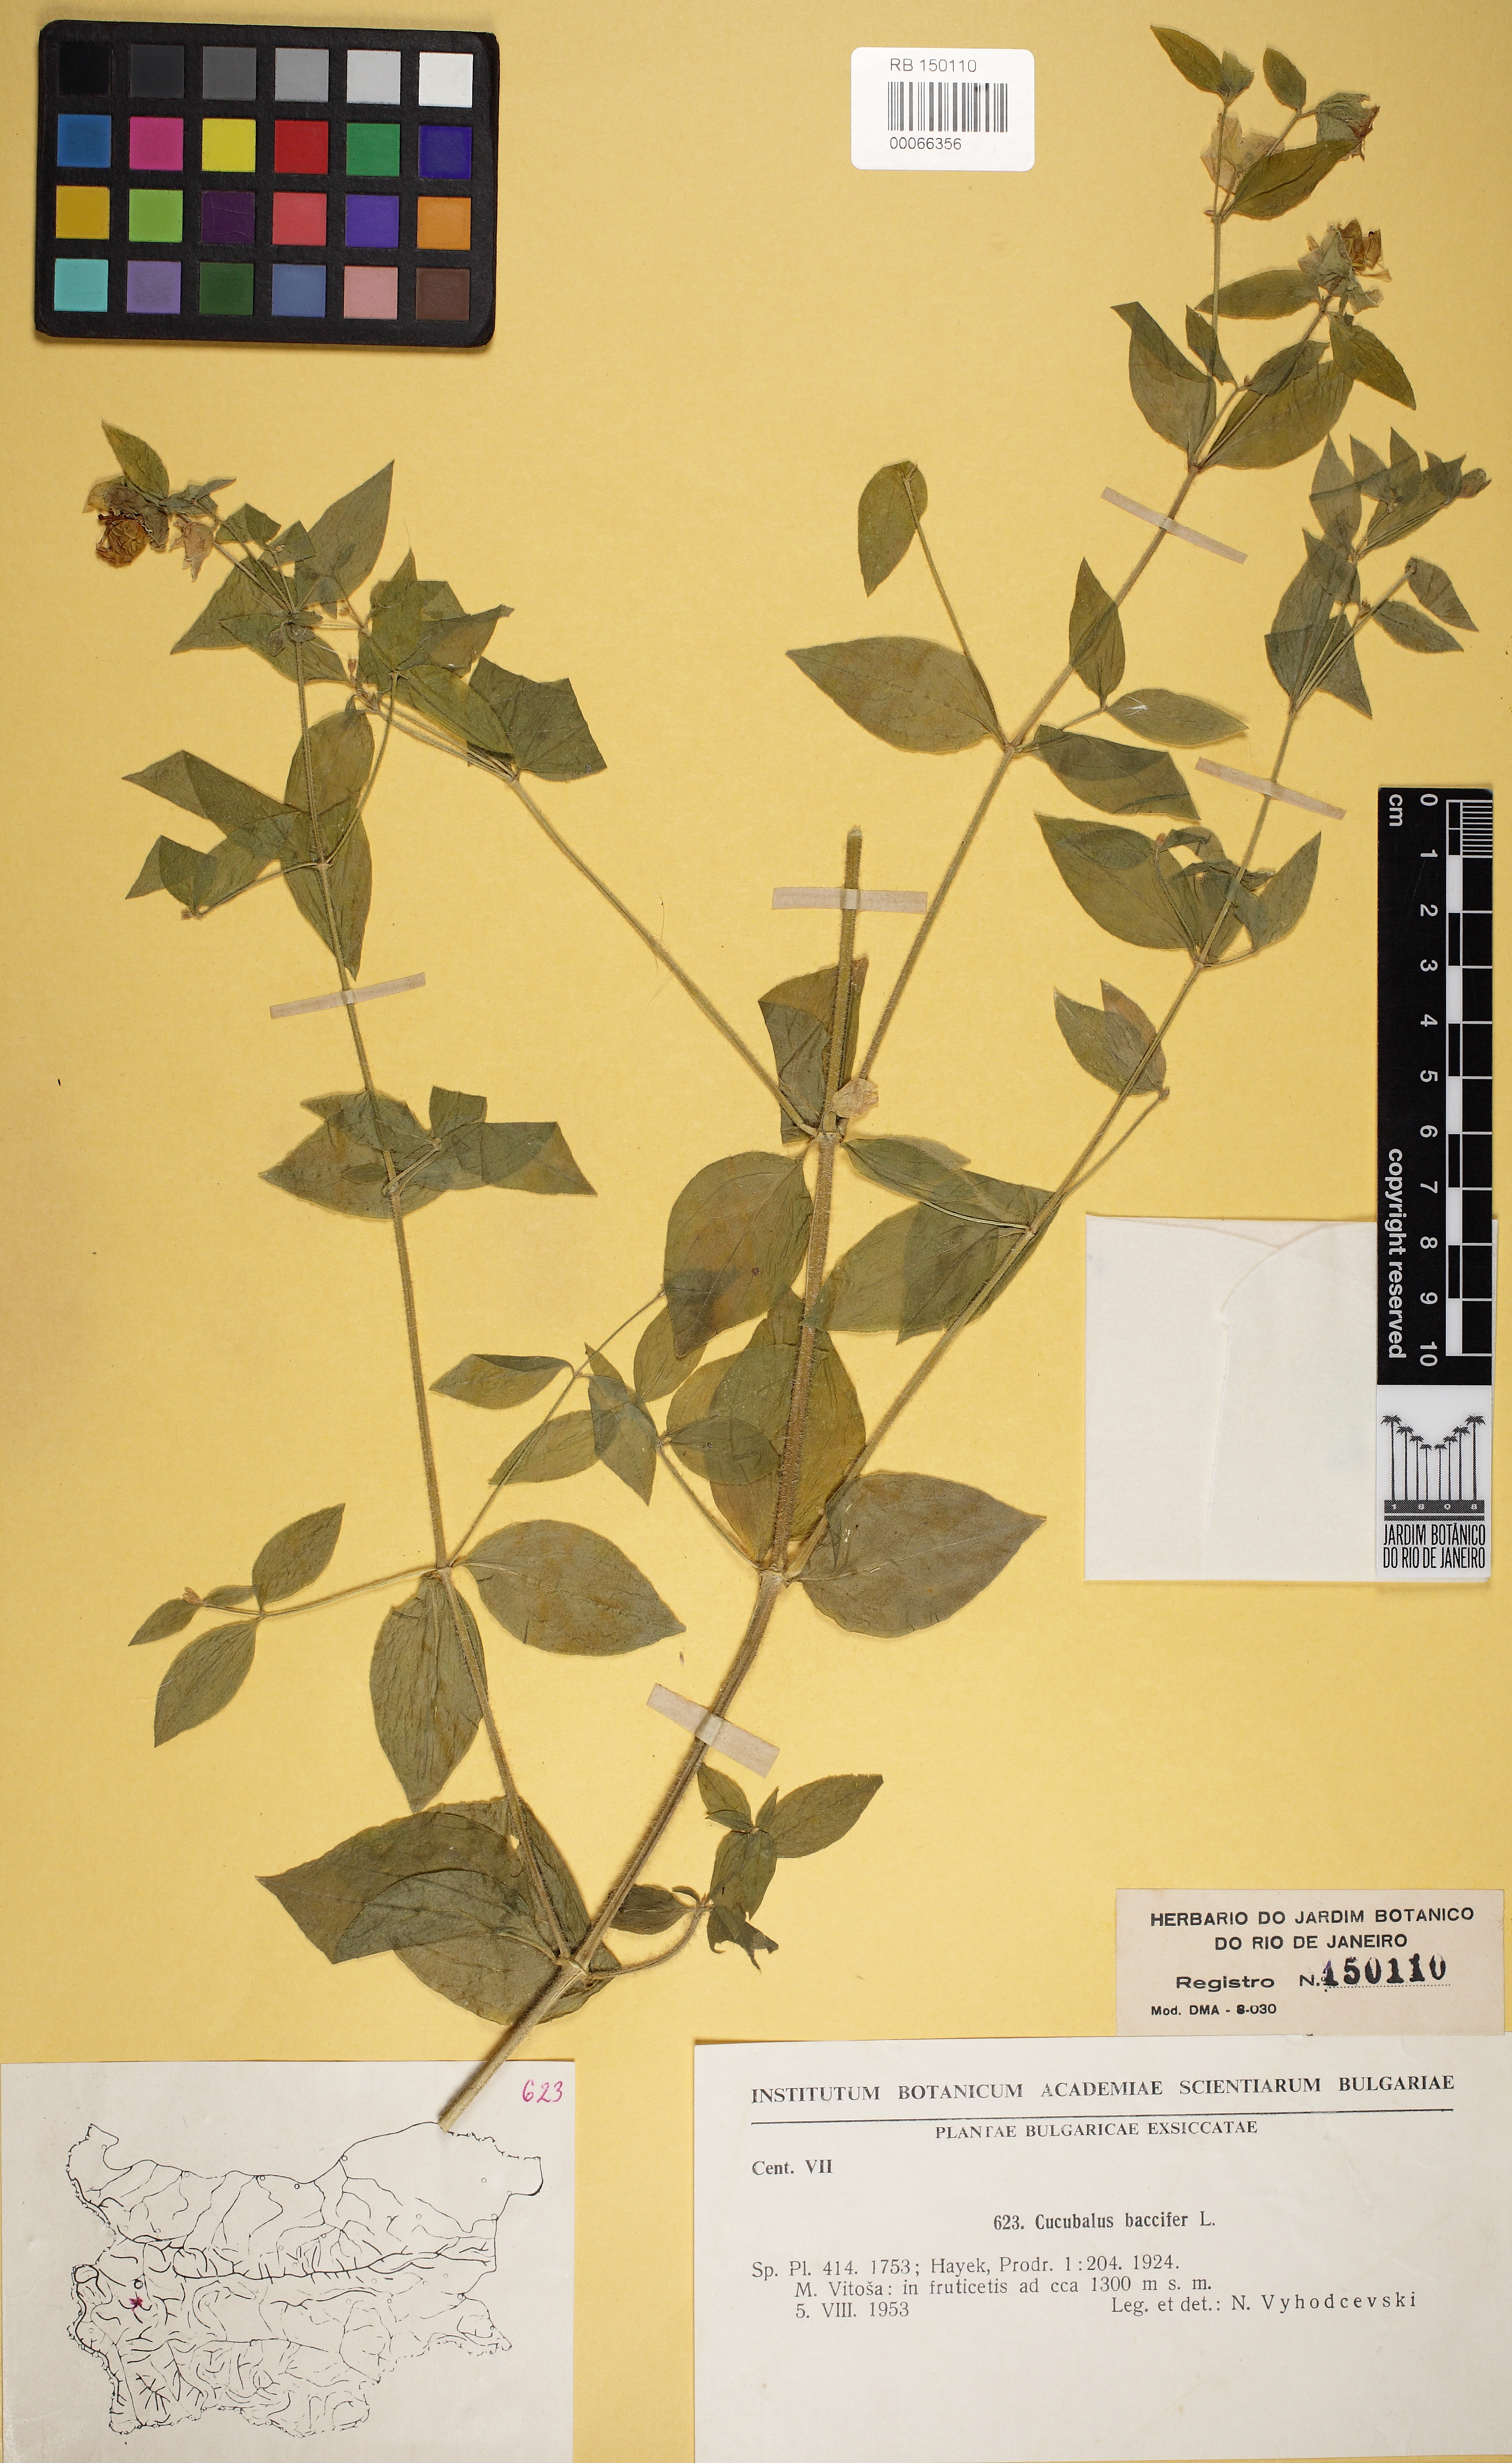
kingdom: Plantae
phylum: Tracheophyta
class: Magnoliopsida
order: Caryophyllales
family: Caryophyllaceae
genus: Silene
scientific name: Silene baccifera
